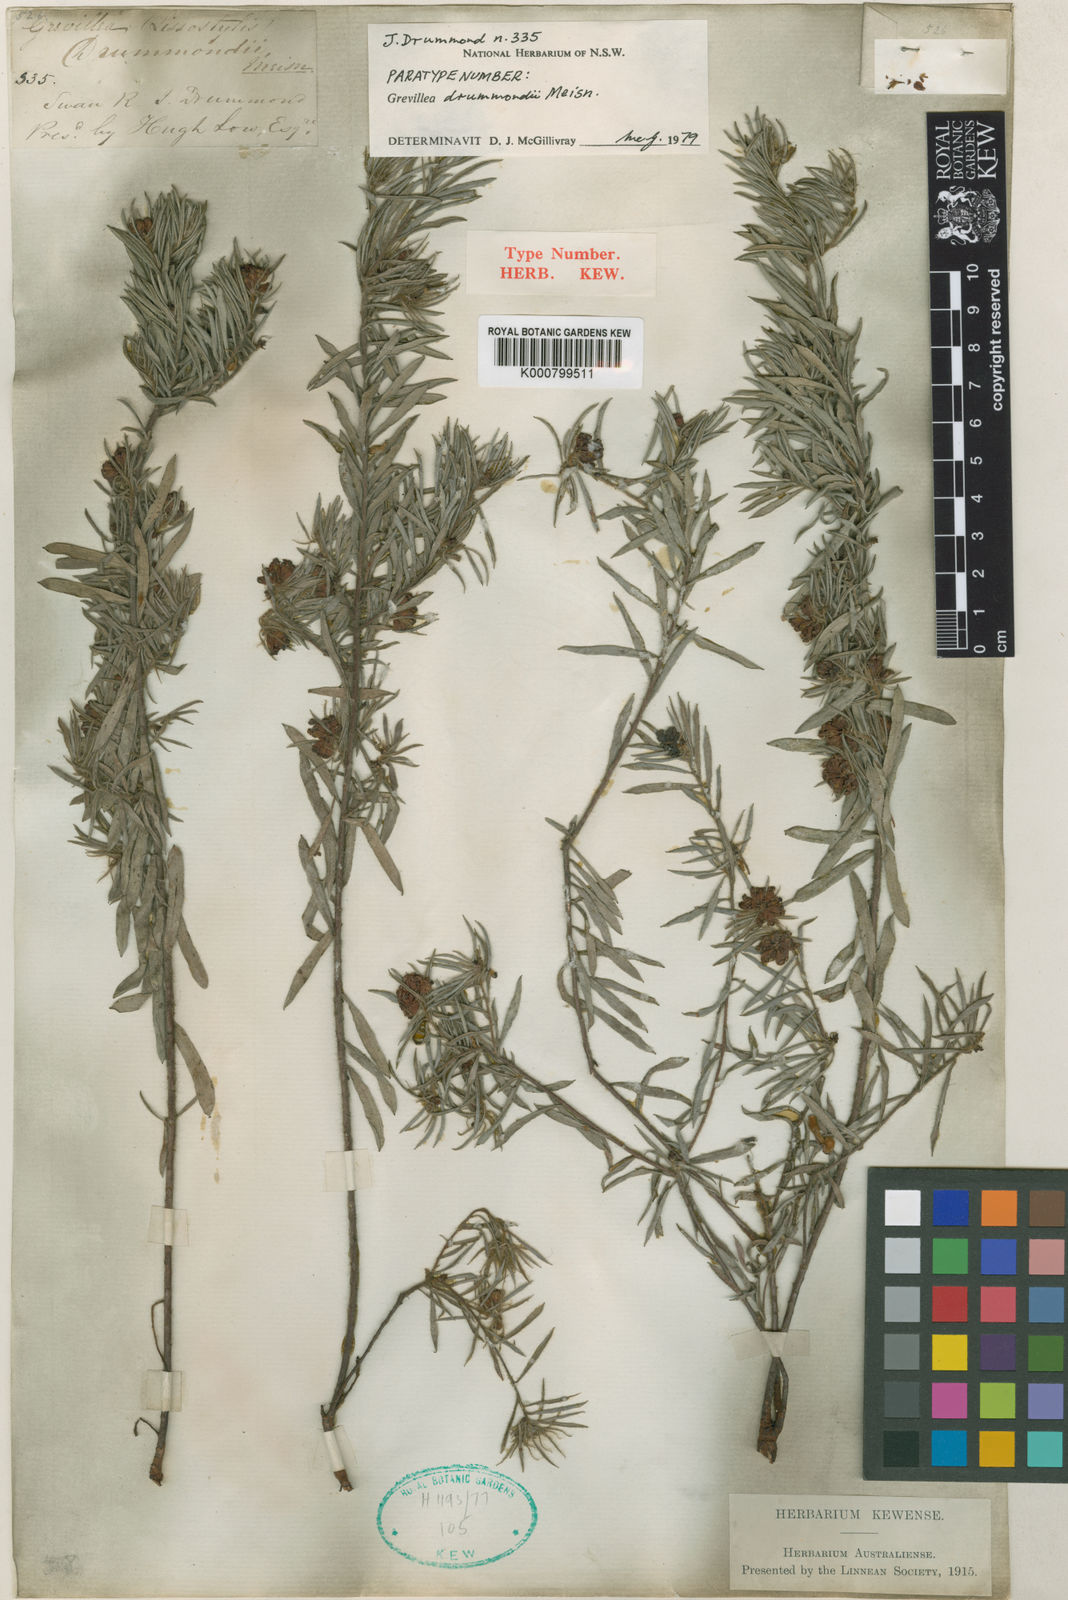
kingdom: Plantae
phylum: Tracheophyta
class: Magnoliopsida
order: Proteales
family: Proteaceae
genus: Grevillea
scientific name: Grevillea drummondii
